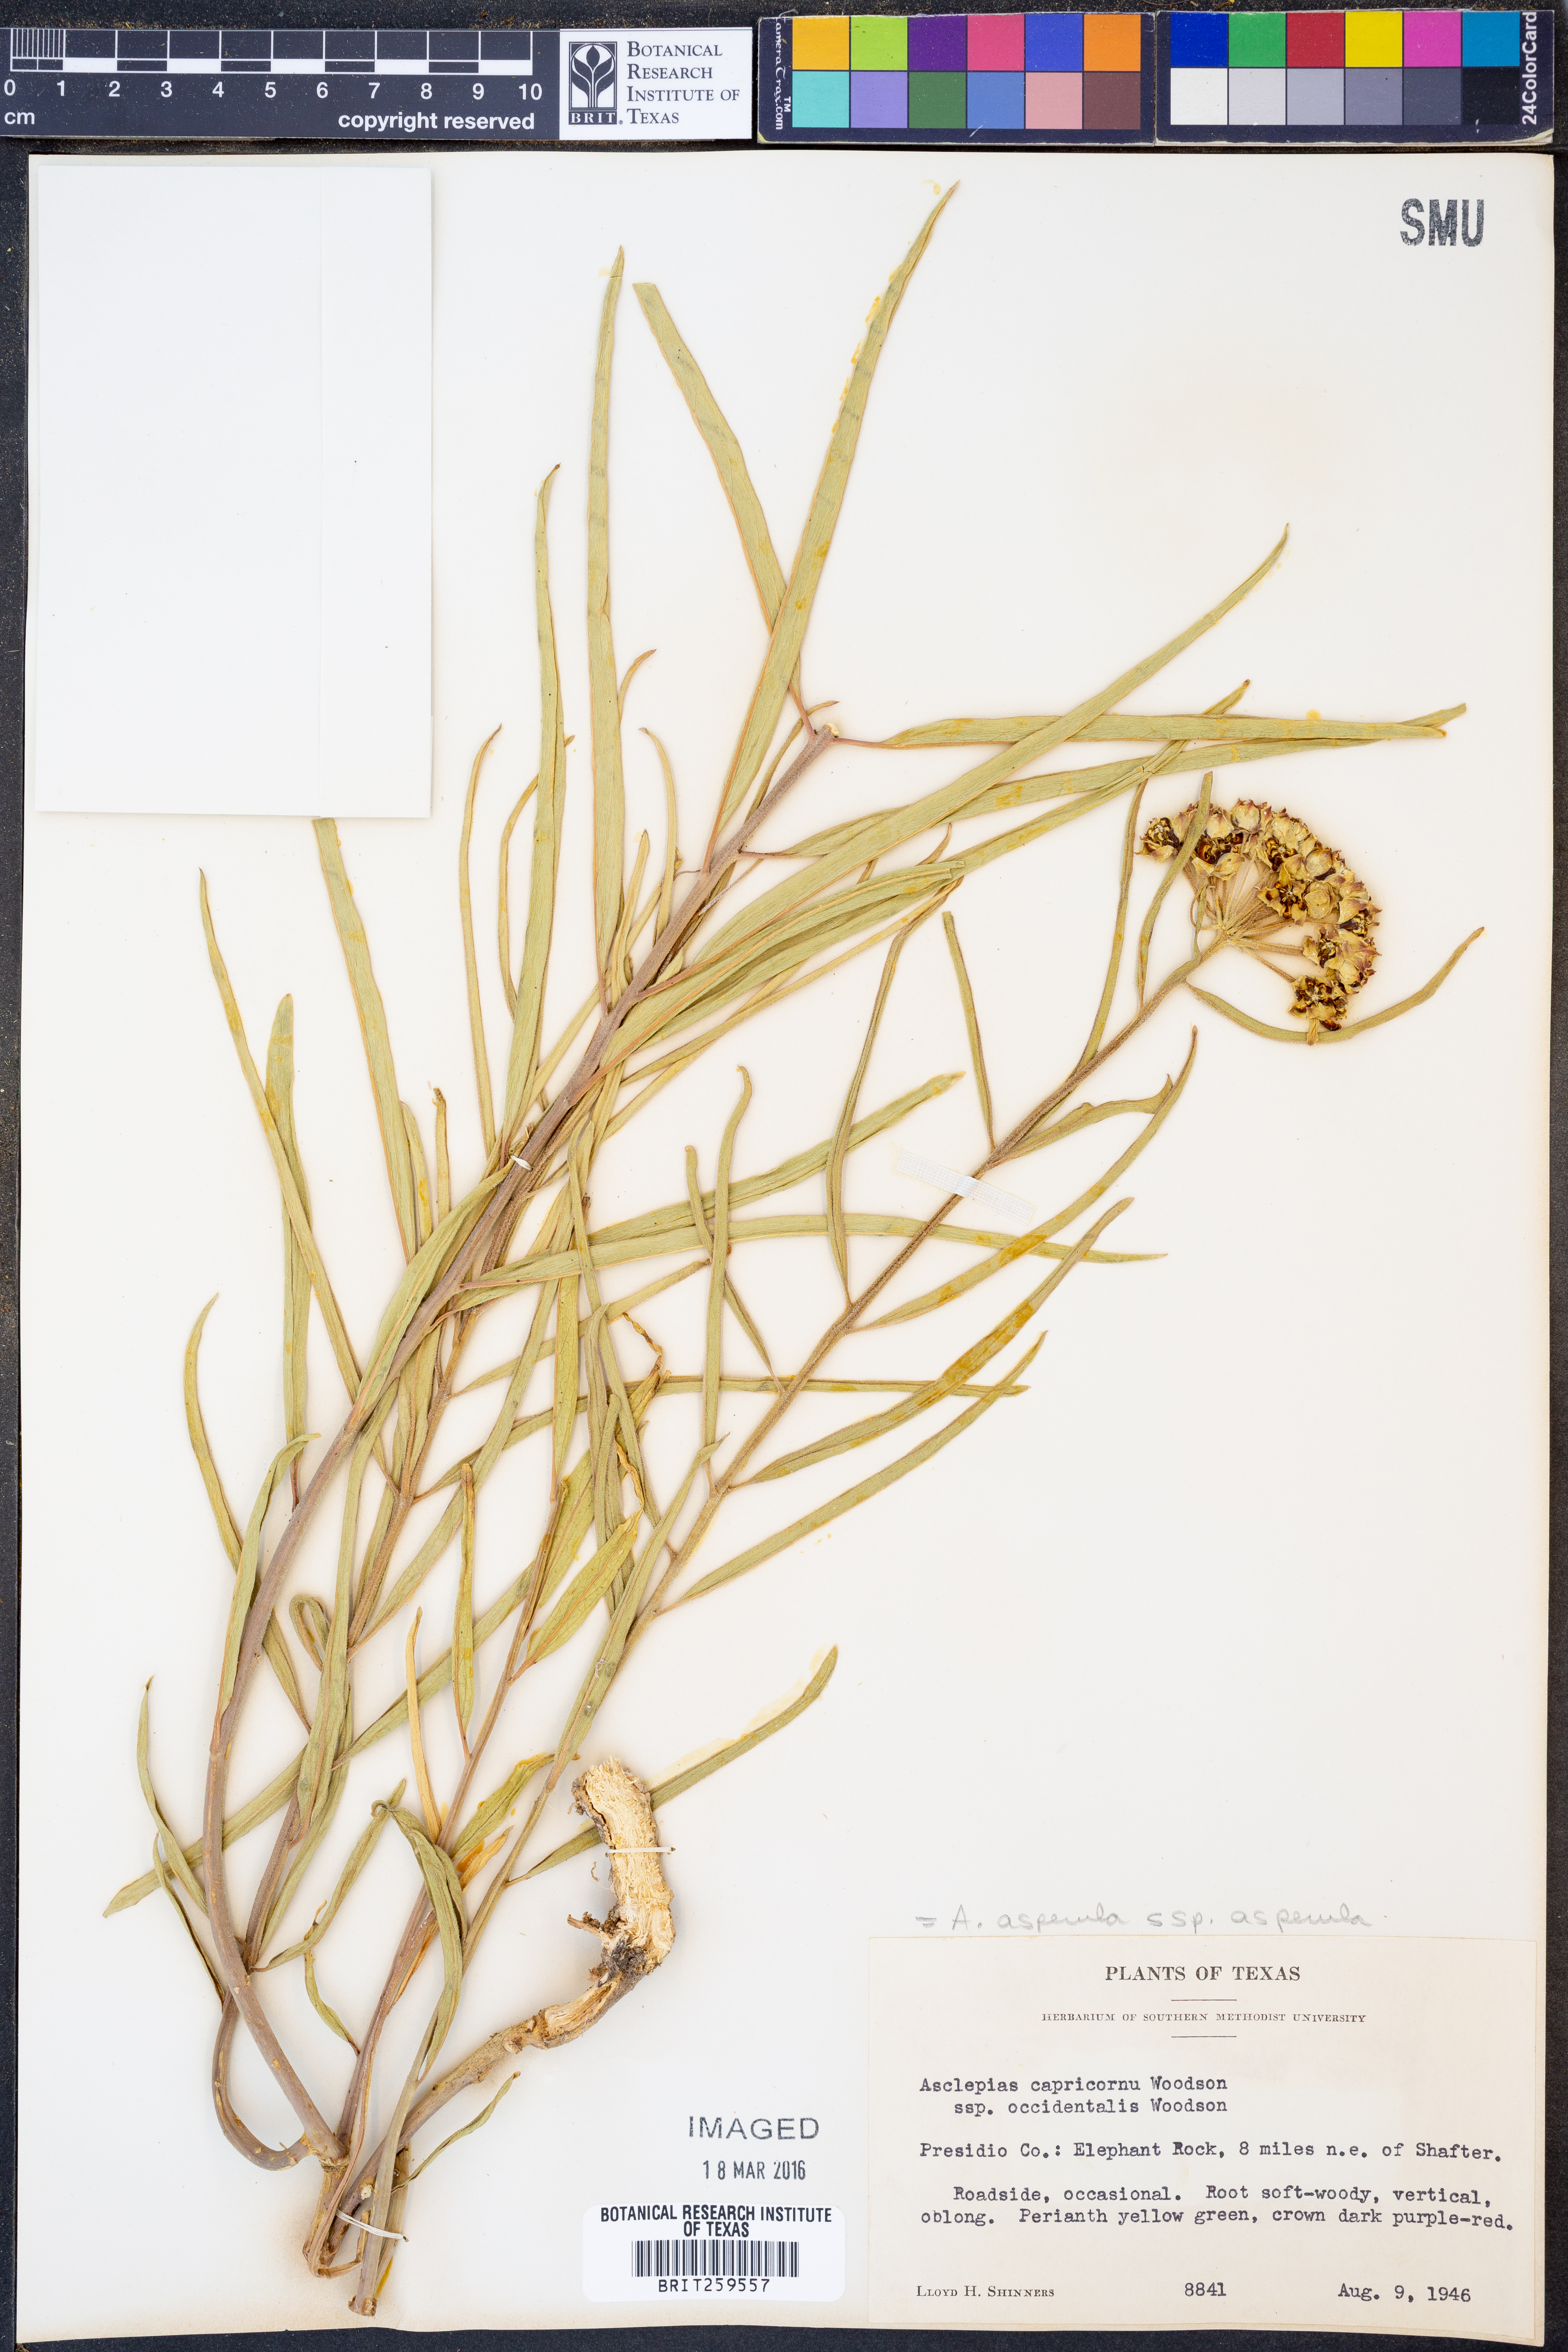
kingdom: Plantae
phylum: Tracheophyta
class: Magnoliopsida
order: Gentianales
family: Apocynaceae
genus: Asclepias
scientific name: Asclepias asperula
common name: Antelope horns
